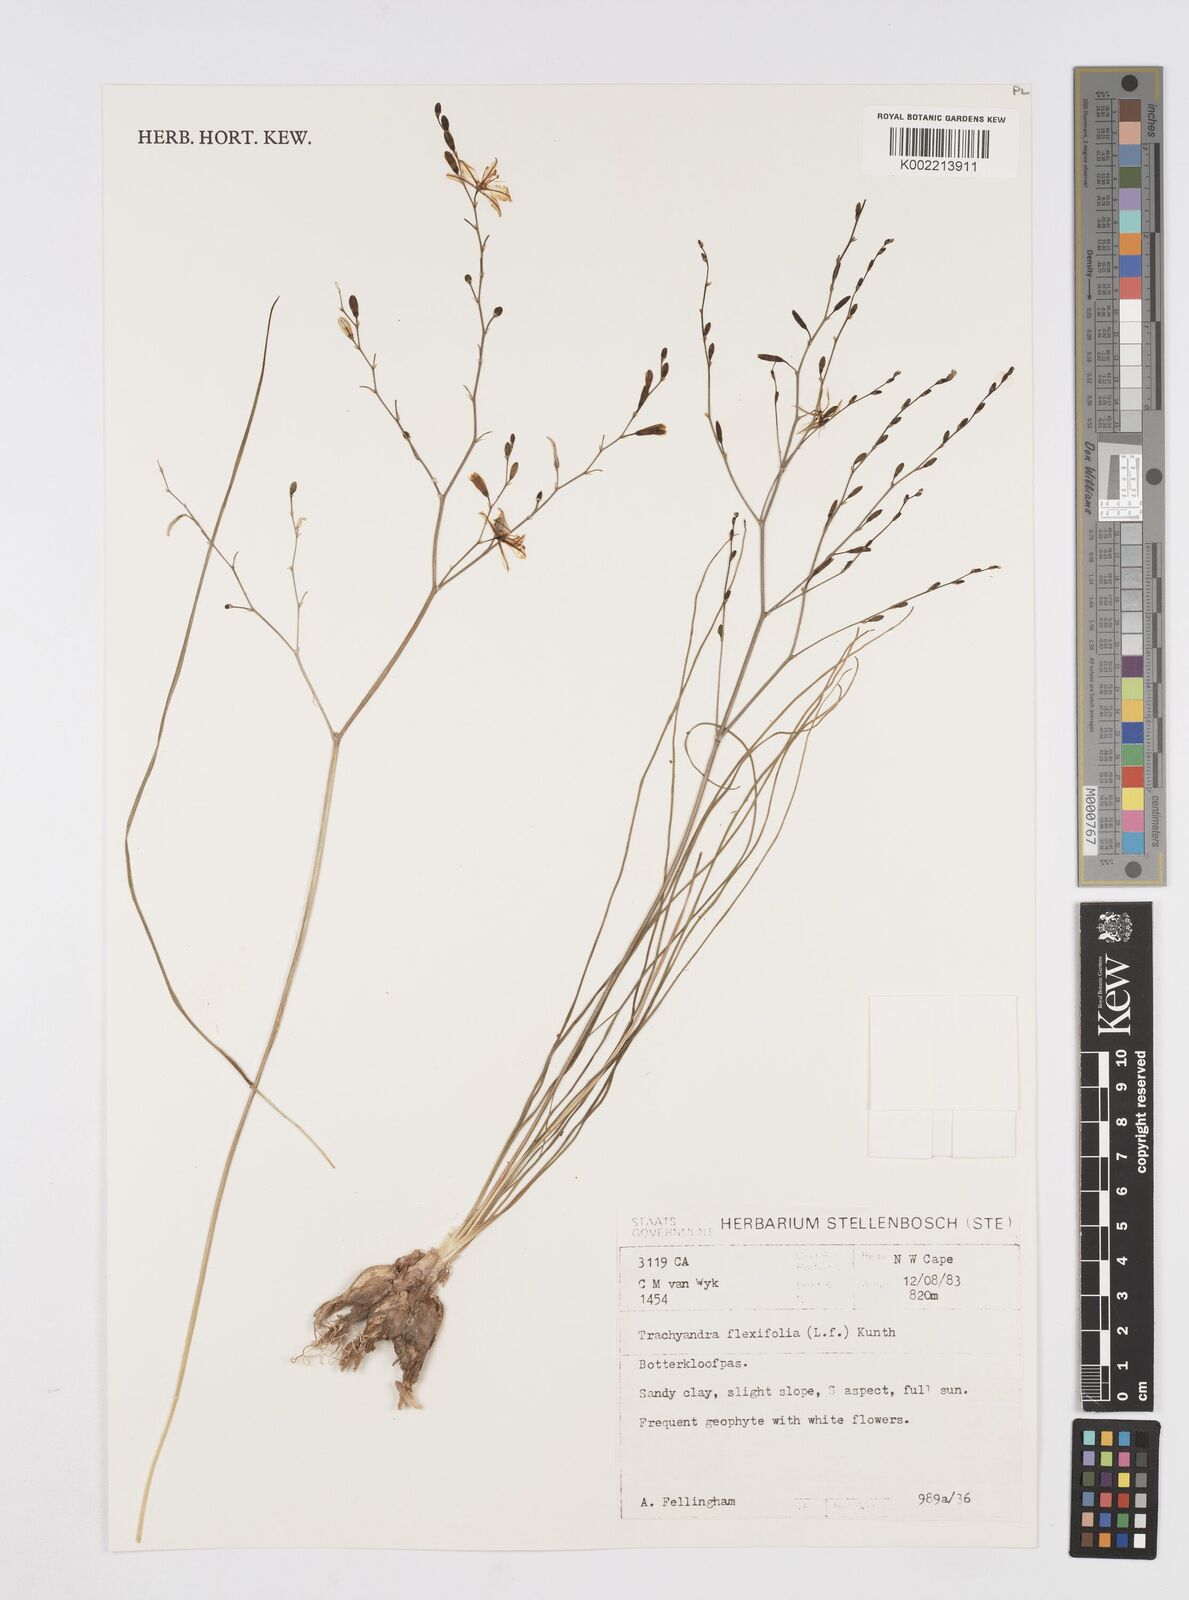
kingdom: Plantae
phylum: Tracheophyta
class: Liliopsida
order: Asparagales
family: Asphodelaceae
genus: Trachyandra
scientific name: Trachyandra flexifolia
